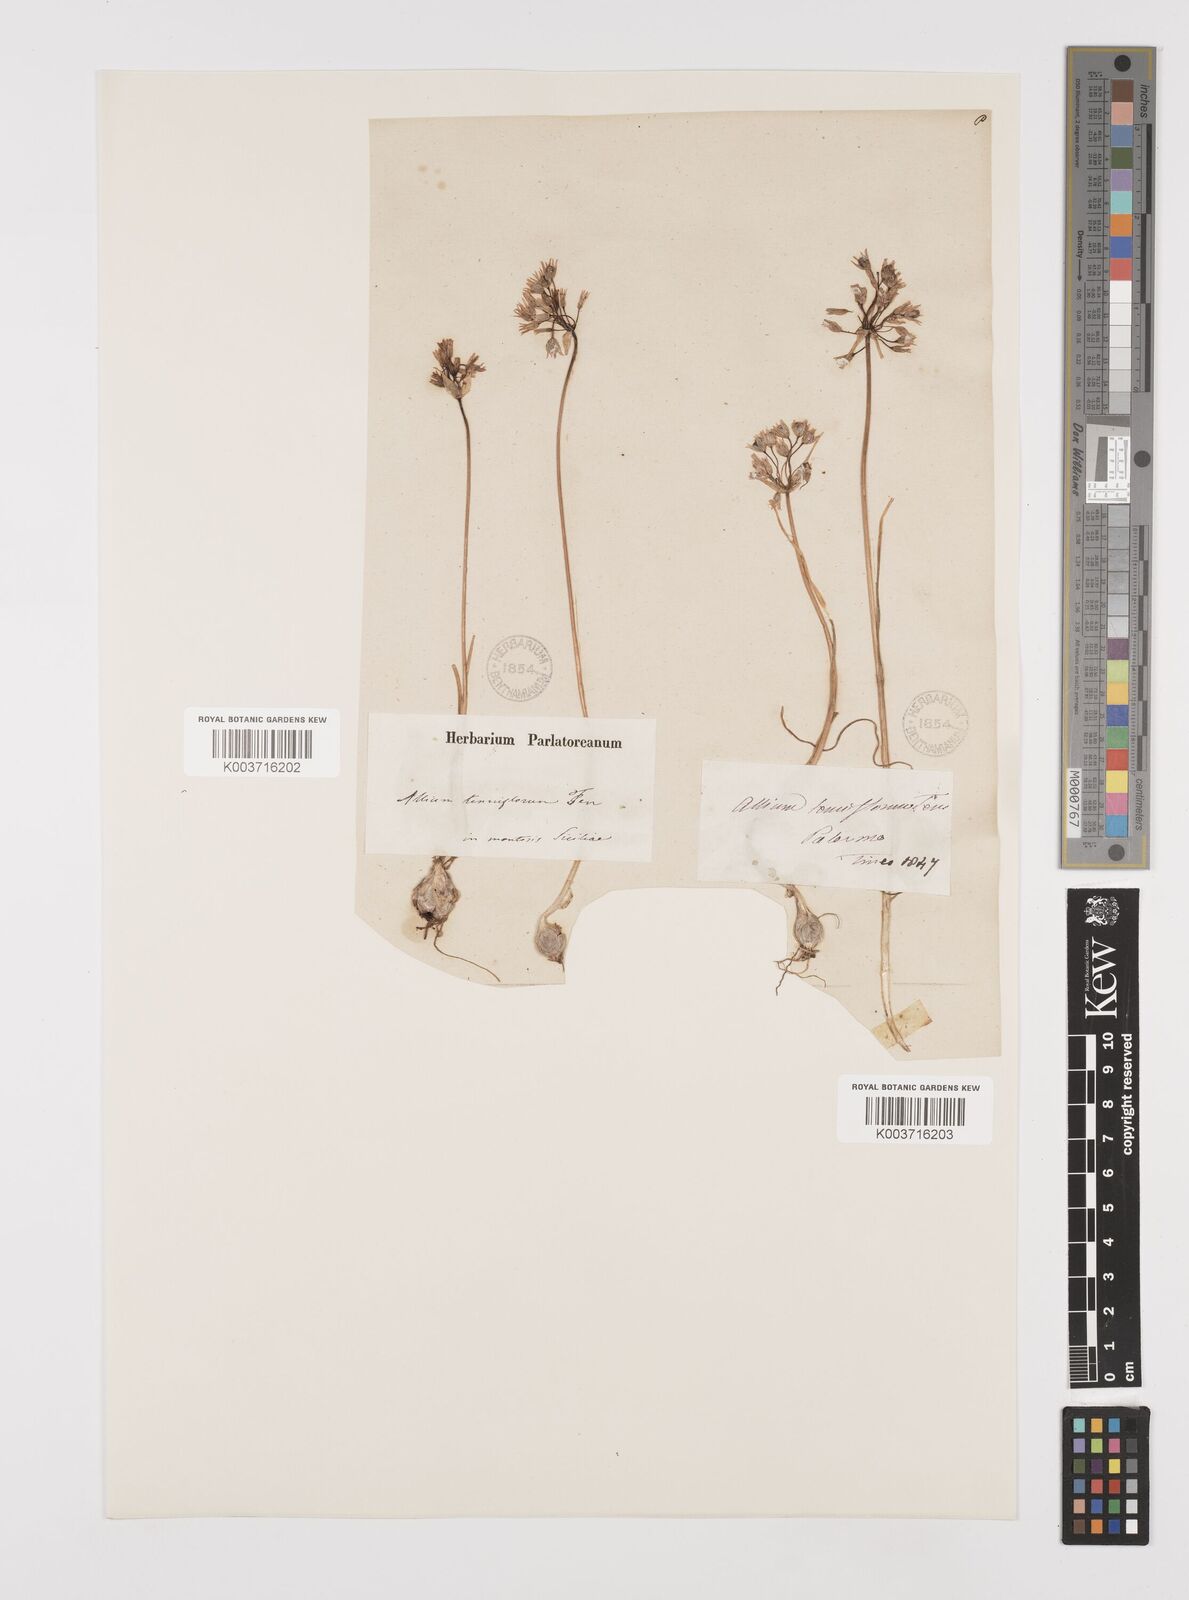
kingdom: Plantae
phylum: Tracheophyta
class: Liliopsida
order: Asparagales
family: Amaryllidaceae
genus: Allium
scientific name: Allium tenuiflorum
